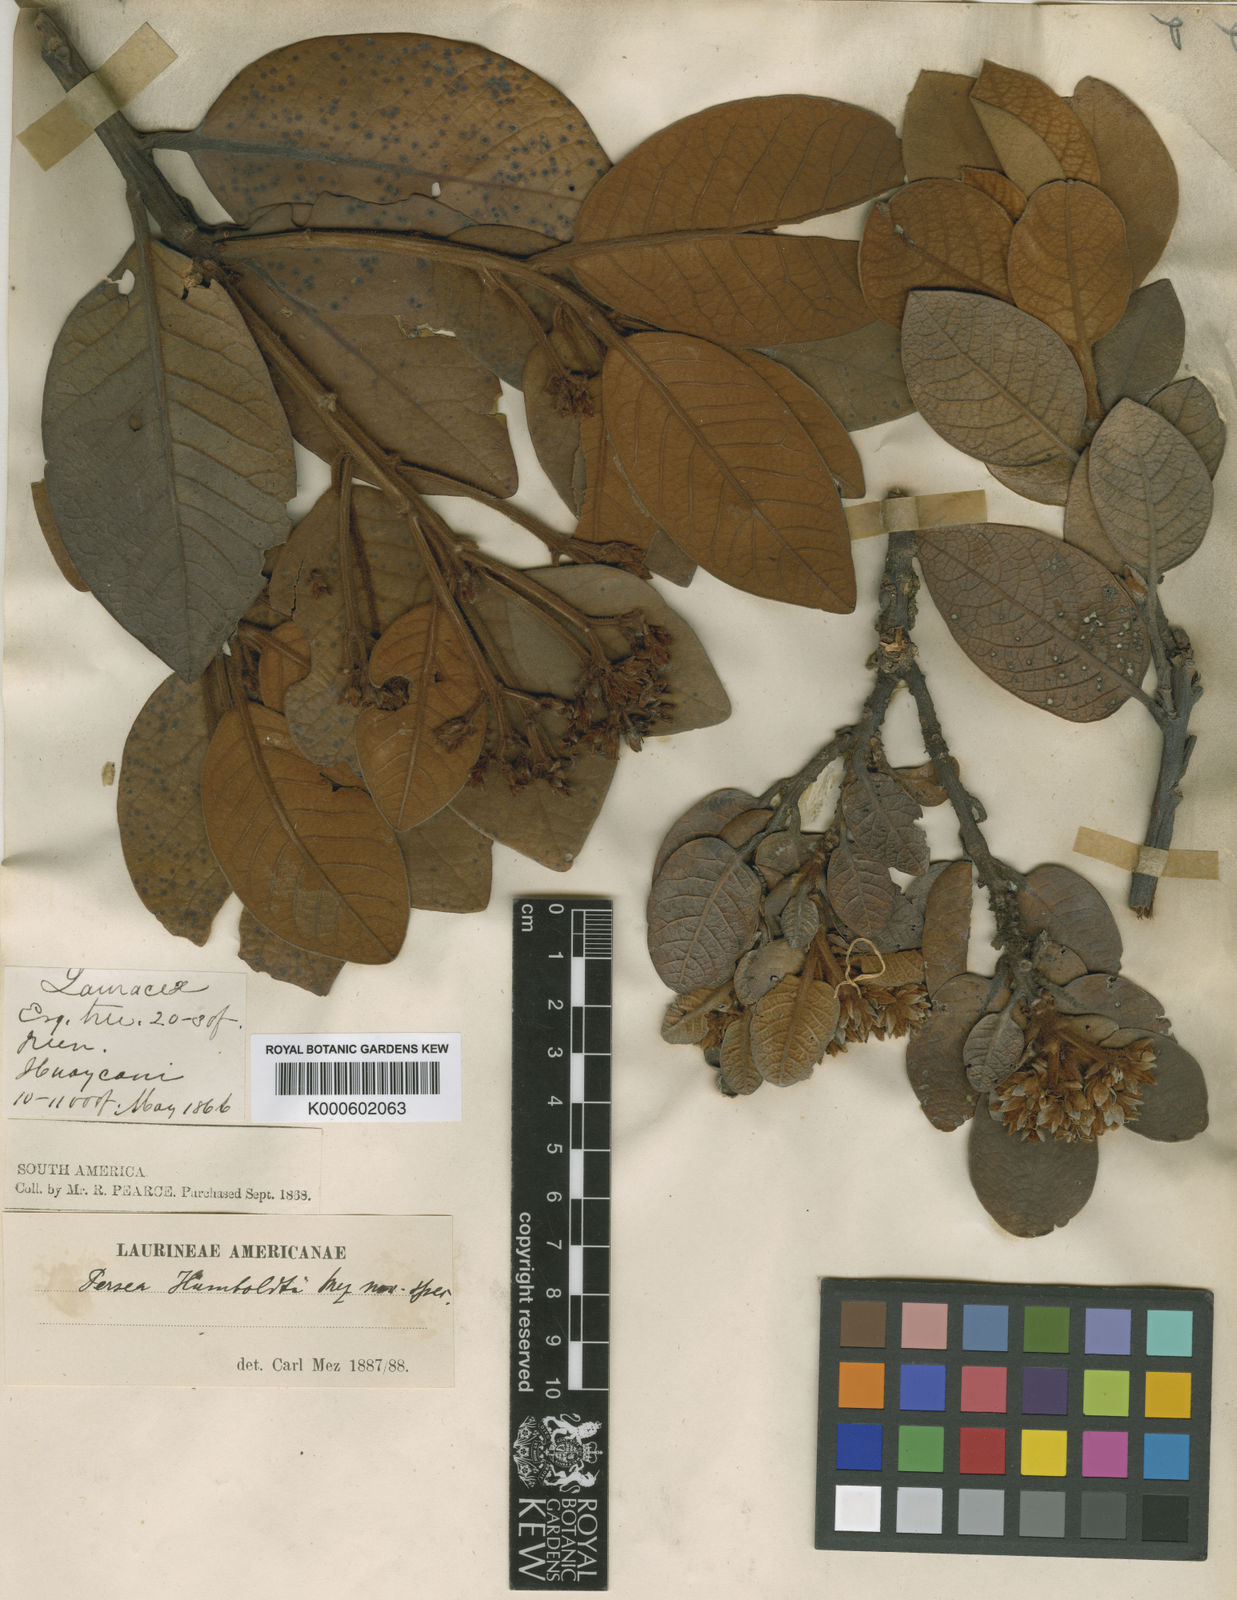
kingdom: Plantae
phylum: Tracheophyta
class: Magnoliopsida
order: Laurales
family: Lauraceae
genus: Persea
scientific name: Persea ferruginea
